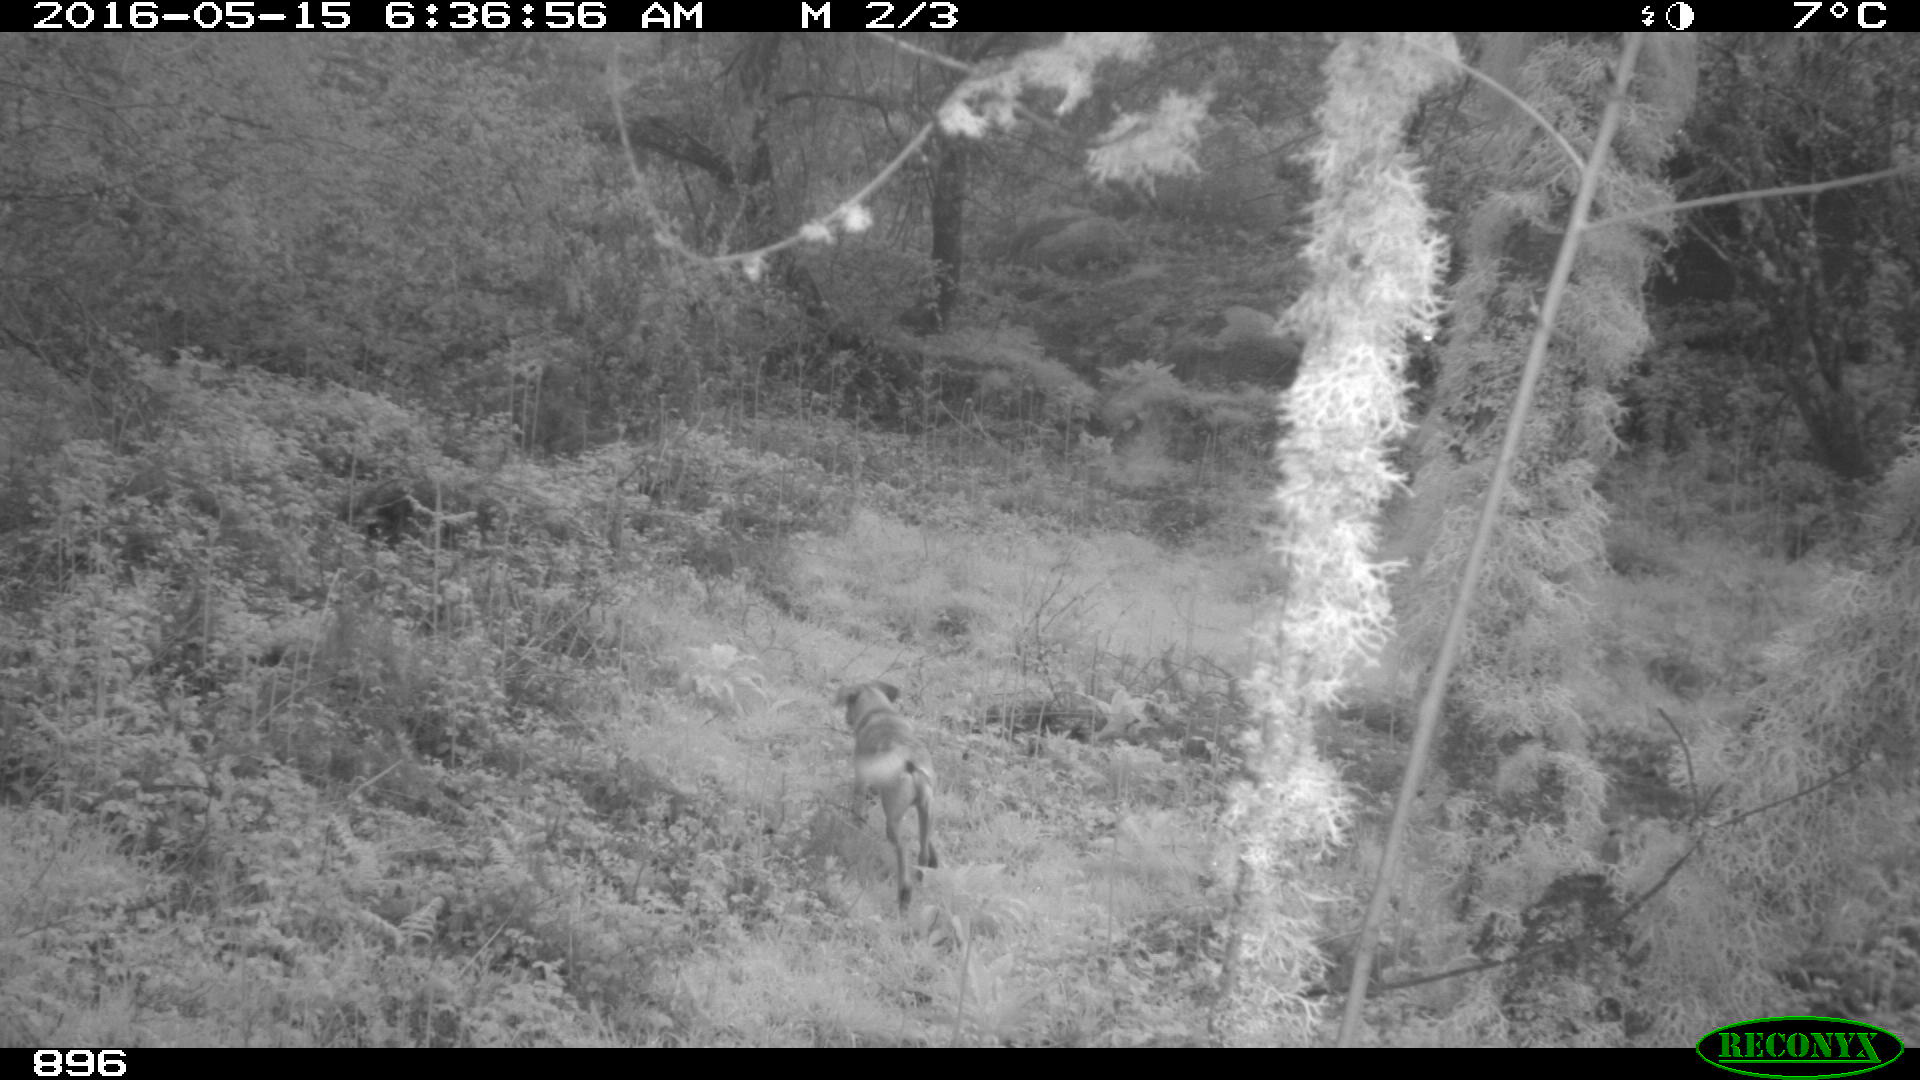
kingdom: Animalia
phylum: Chordata
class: Mammalia
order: Carnivora
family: Canidae
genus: Canis
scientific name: Canis lupus
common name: Gray wolf
